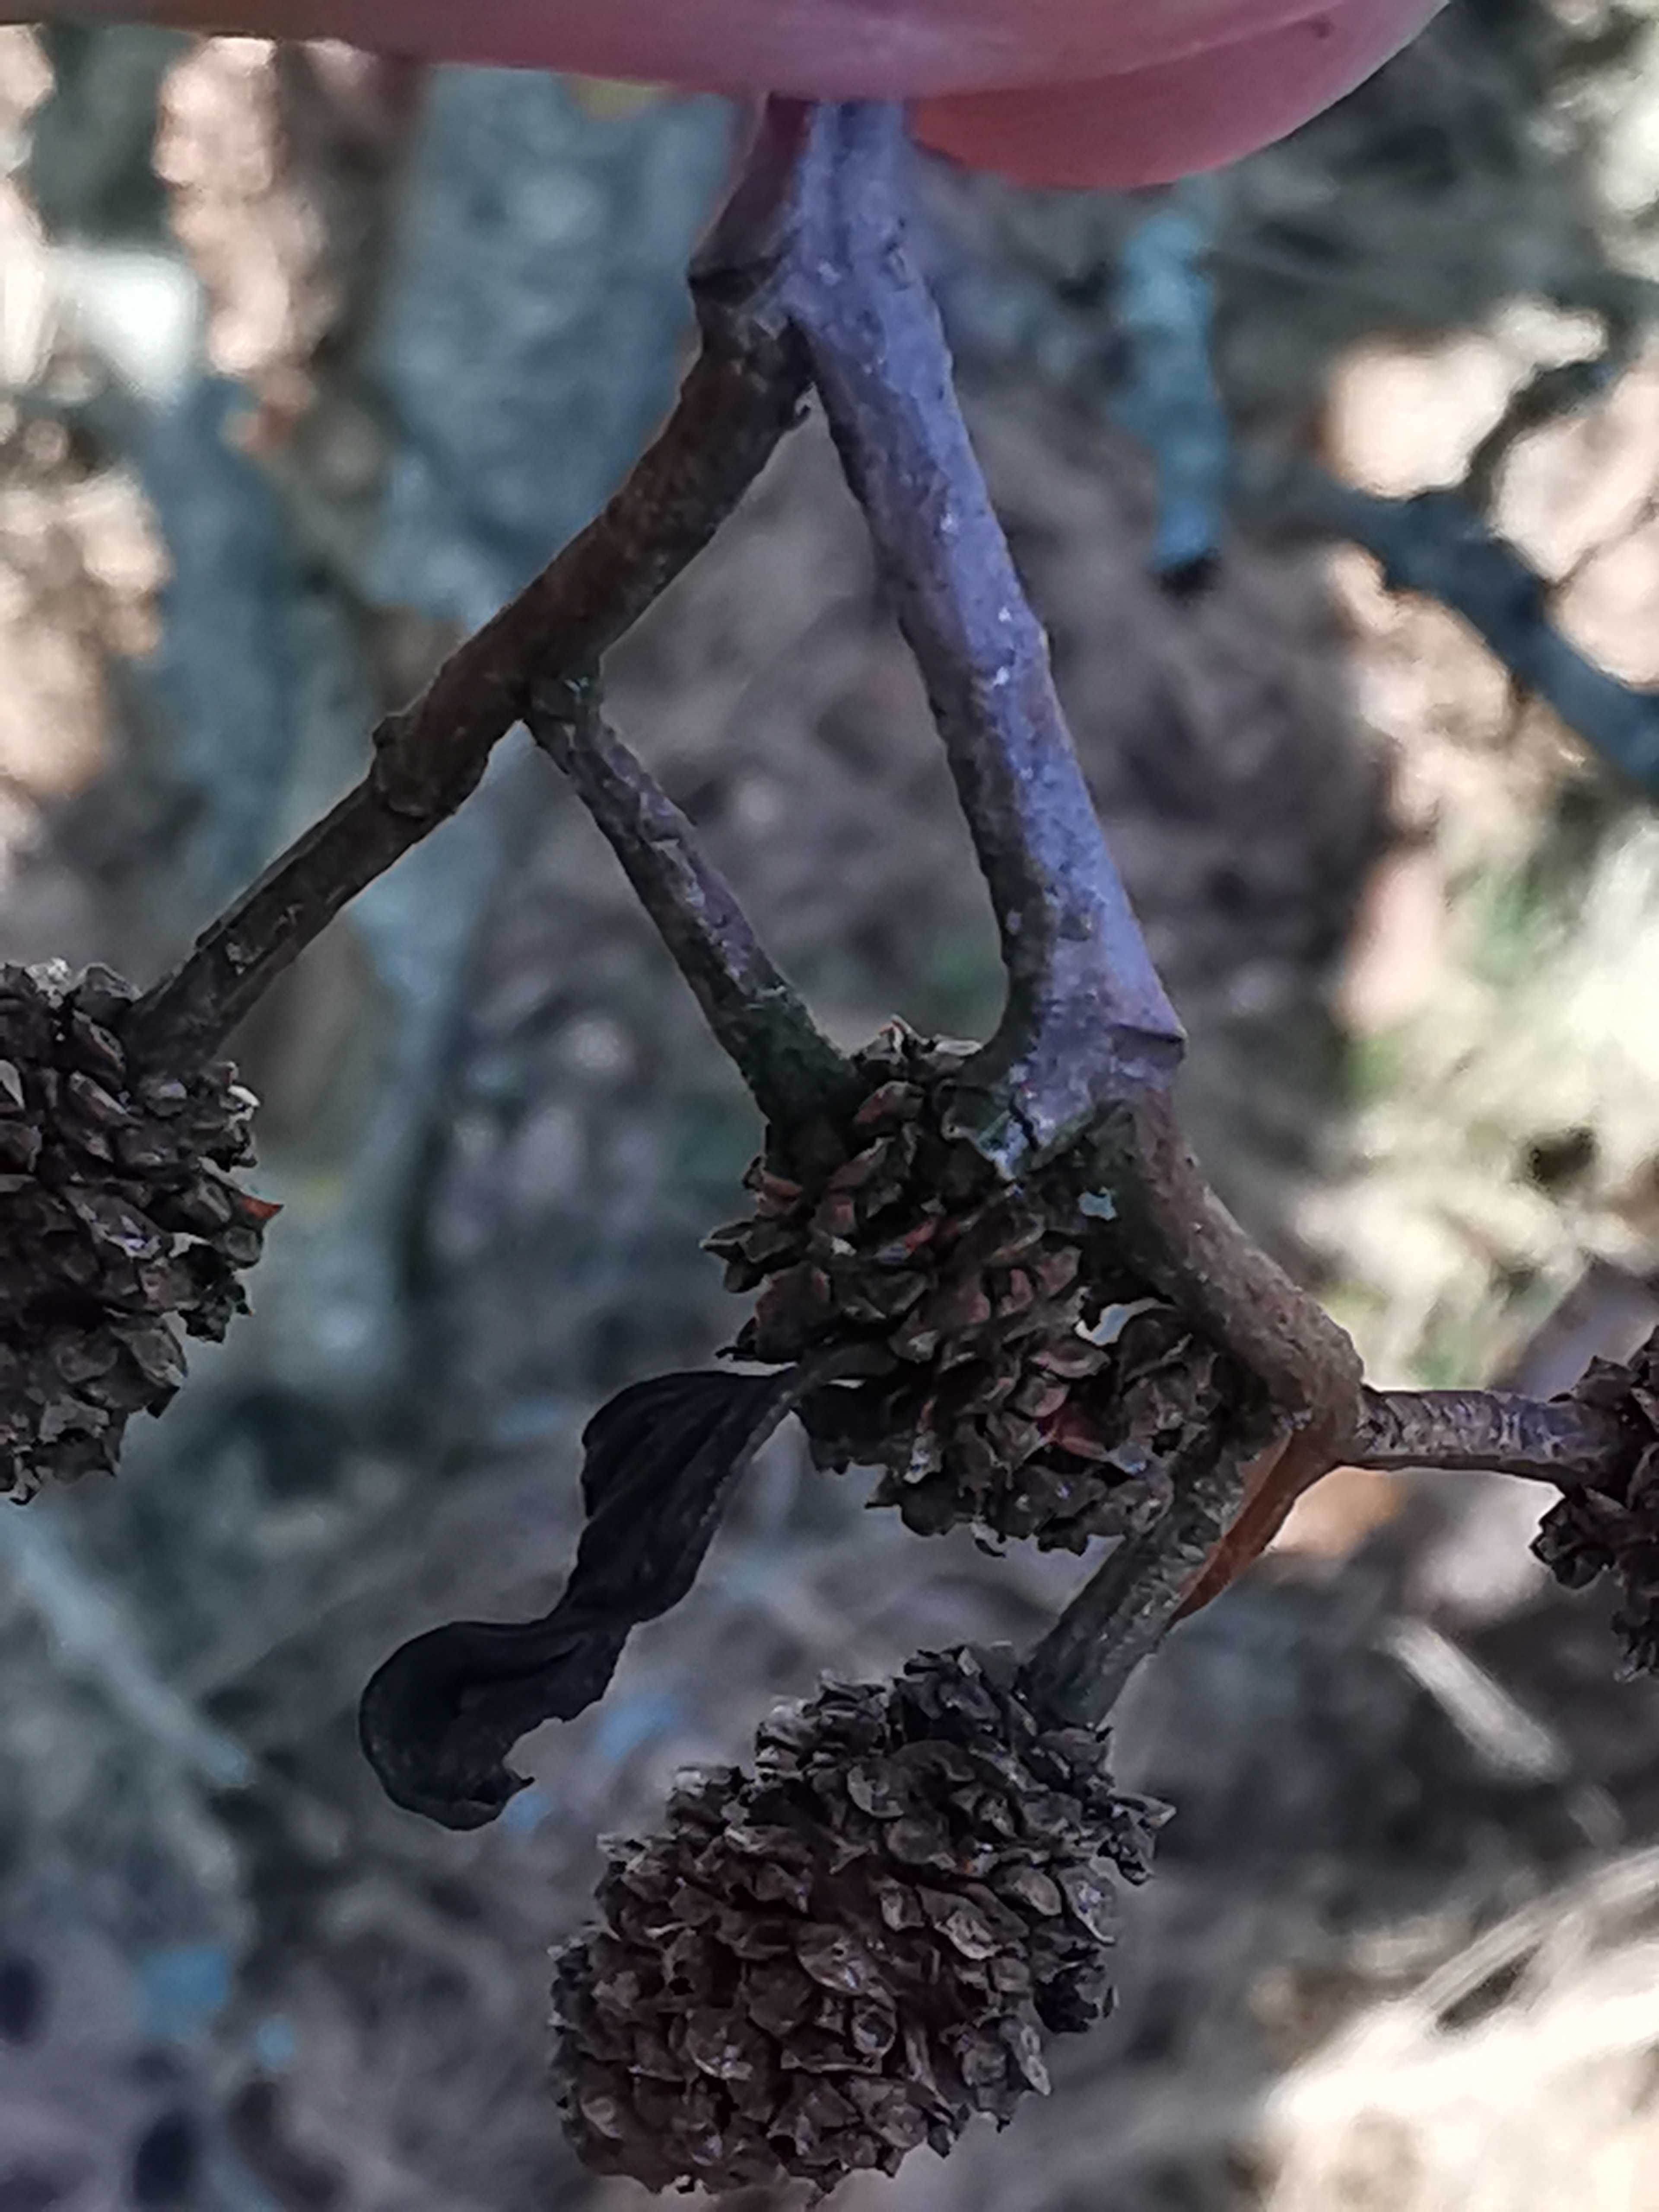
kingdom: Fungi
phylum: Ascomycota
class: Taphrinomycetes
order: Taphrinales
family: Taphrinaceae
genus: Taphrina
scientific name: Taphrina alni
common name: Alder tongue
